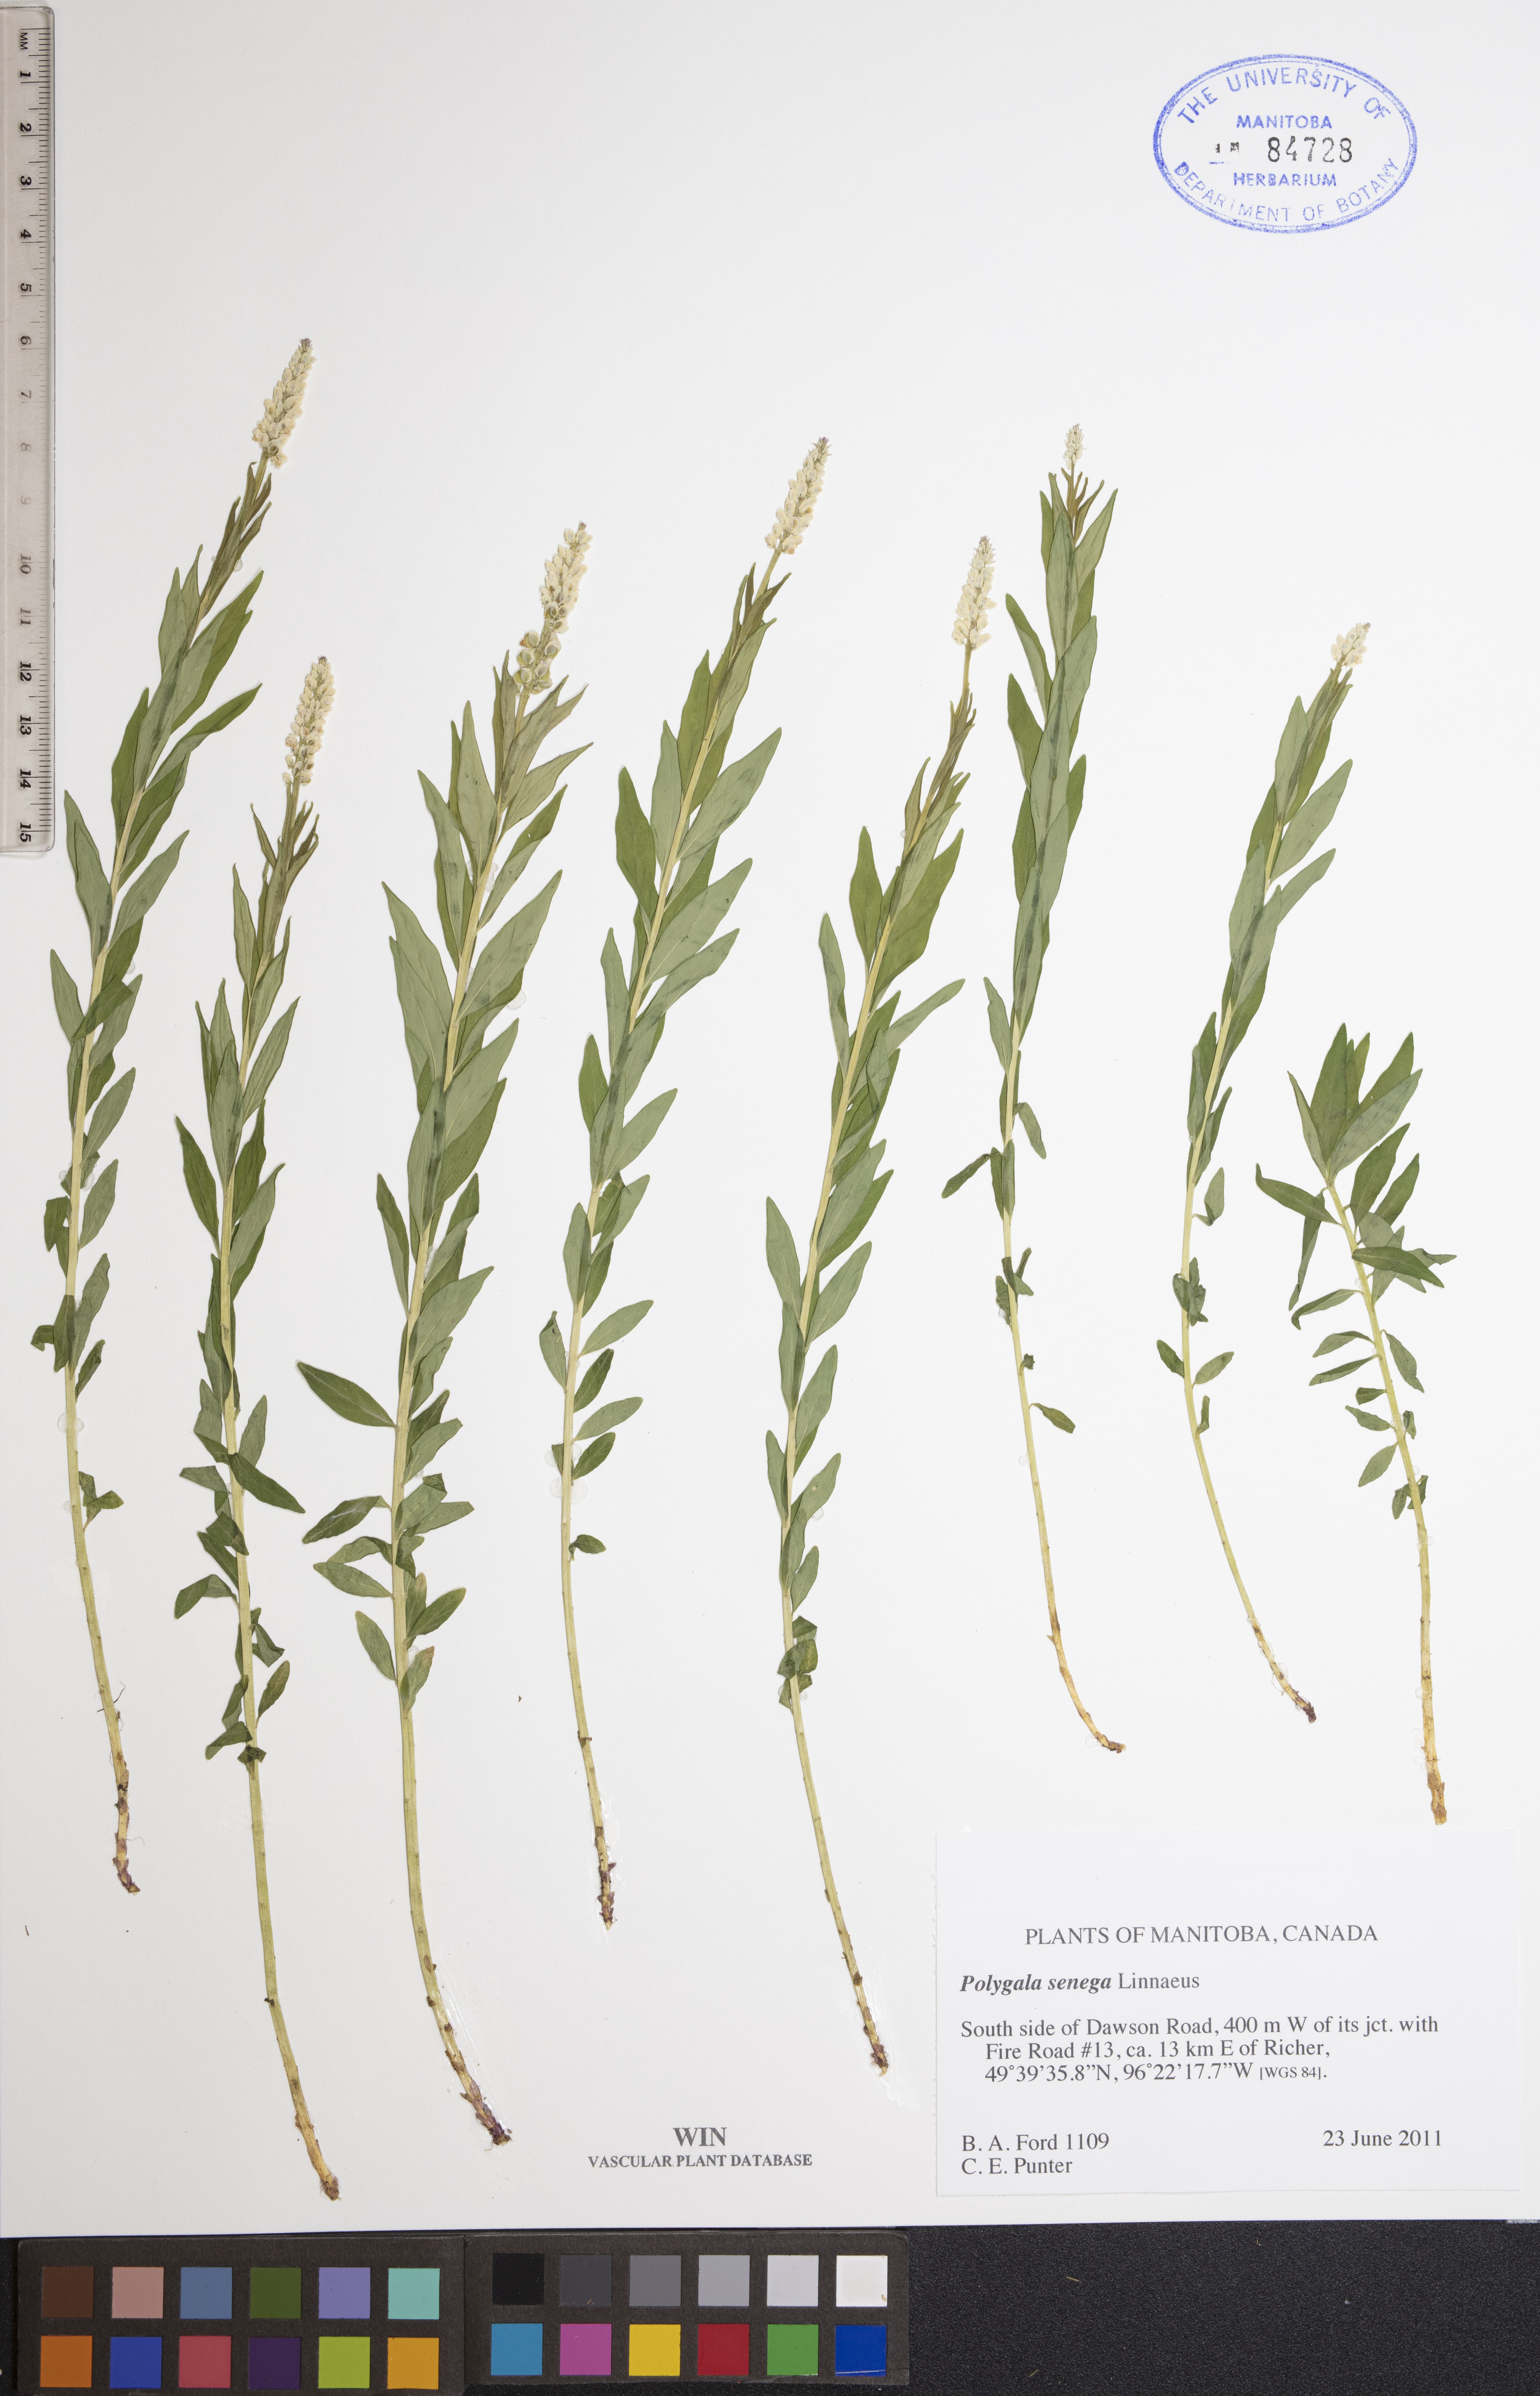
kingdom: Plantae
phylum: Tracheophyta
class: Magnoliopsida
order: Fabales
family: Polygalaceae
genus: Polygala
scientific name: Polygala senega
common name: Seneca snakeroot
